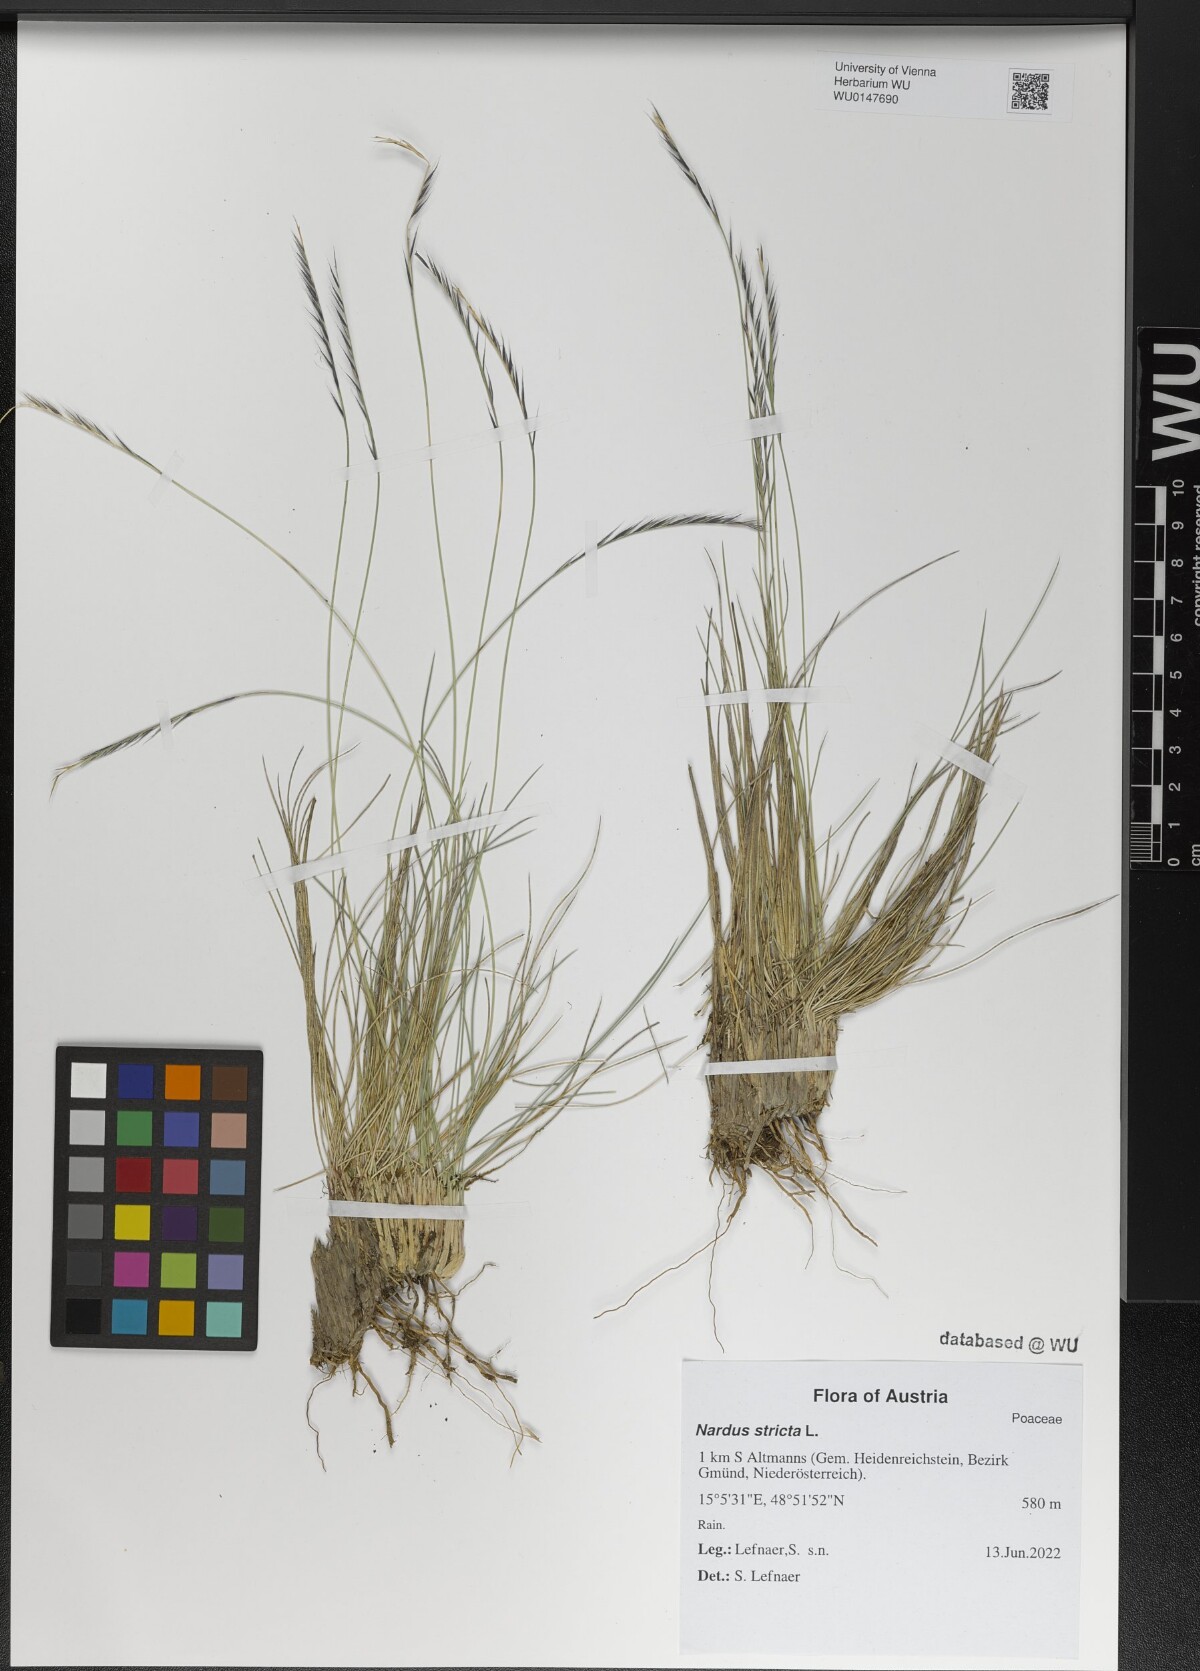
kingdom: Plantae
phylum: Tracheophyta
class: Liliopsida
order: Poales
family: Poaceae
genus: Nardus
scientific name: Nardus stricta
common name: Mat-grass
